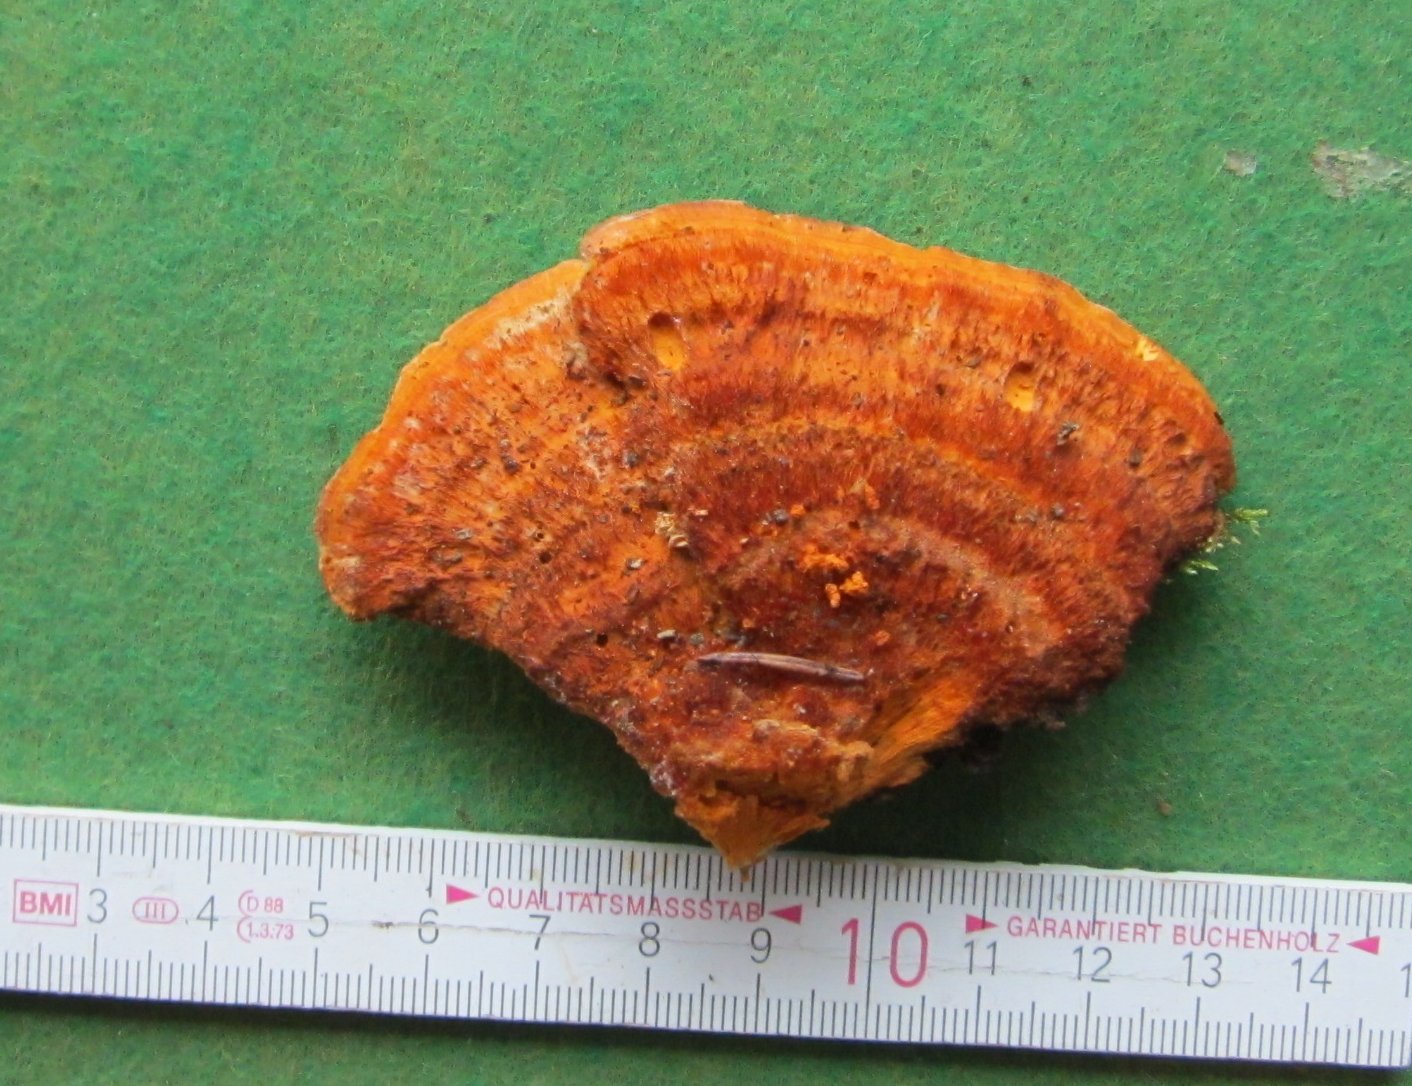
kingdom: Fungi
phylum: Basidiomycota
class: Agaricomycetes
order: Polyporales
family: Pycnoporellaceae
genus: Pycnoporellus
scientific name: Pycnoporellus fulgens
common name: flammeporesvamp
